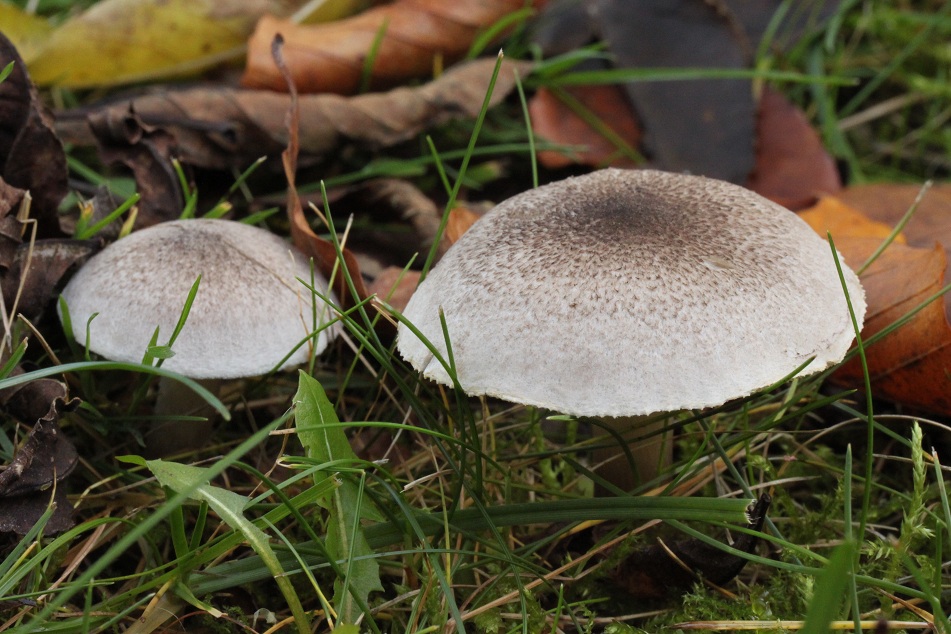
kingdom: Fungi
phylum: Basidiomycota
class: Agaricomycetes
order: Agaricales
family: Tricholomataceae
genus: Tricholoma
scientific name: Tricholoma scalpturatum
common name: gulplettet ridderhat
